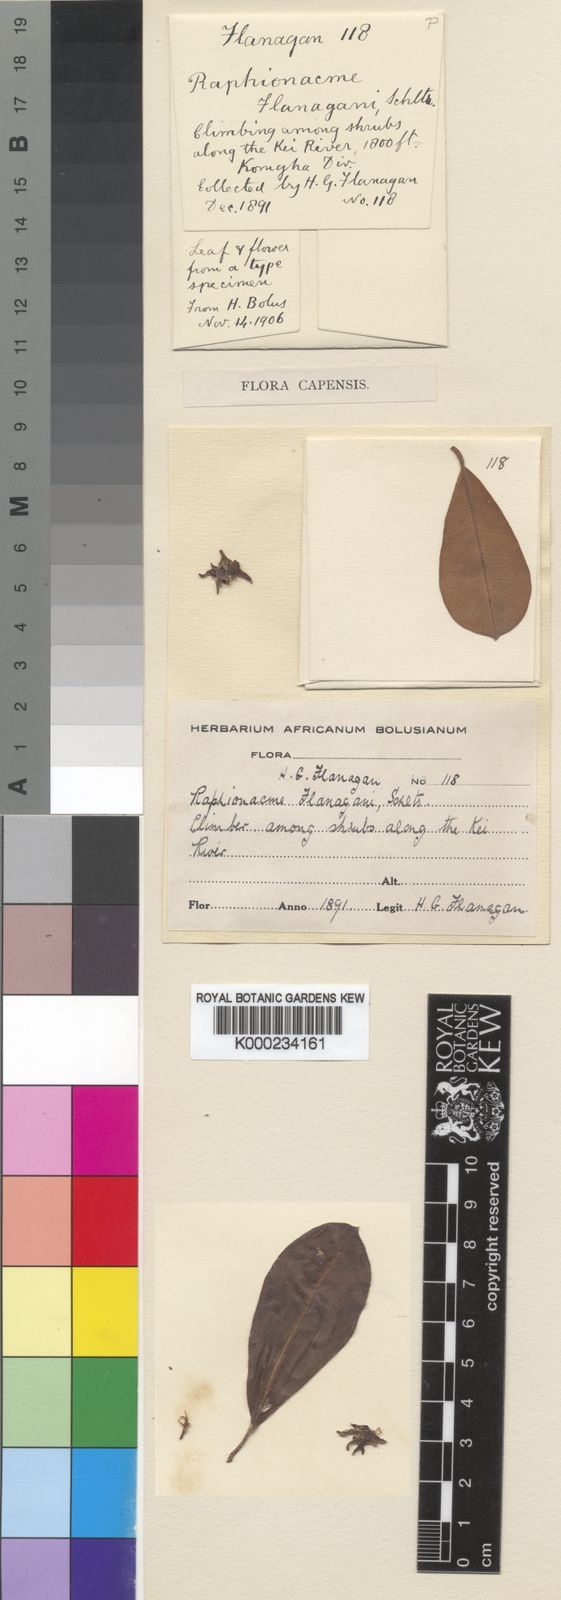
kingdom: Plantae
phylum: Tracheophyta
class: Magnoliopsida
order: Gentianales
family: Apocynaceae
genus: Raphionacme
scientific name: Raphionacme flanaganii
